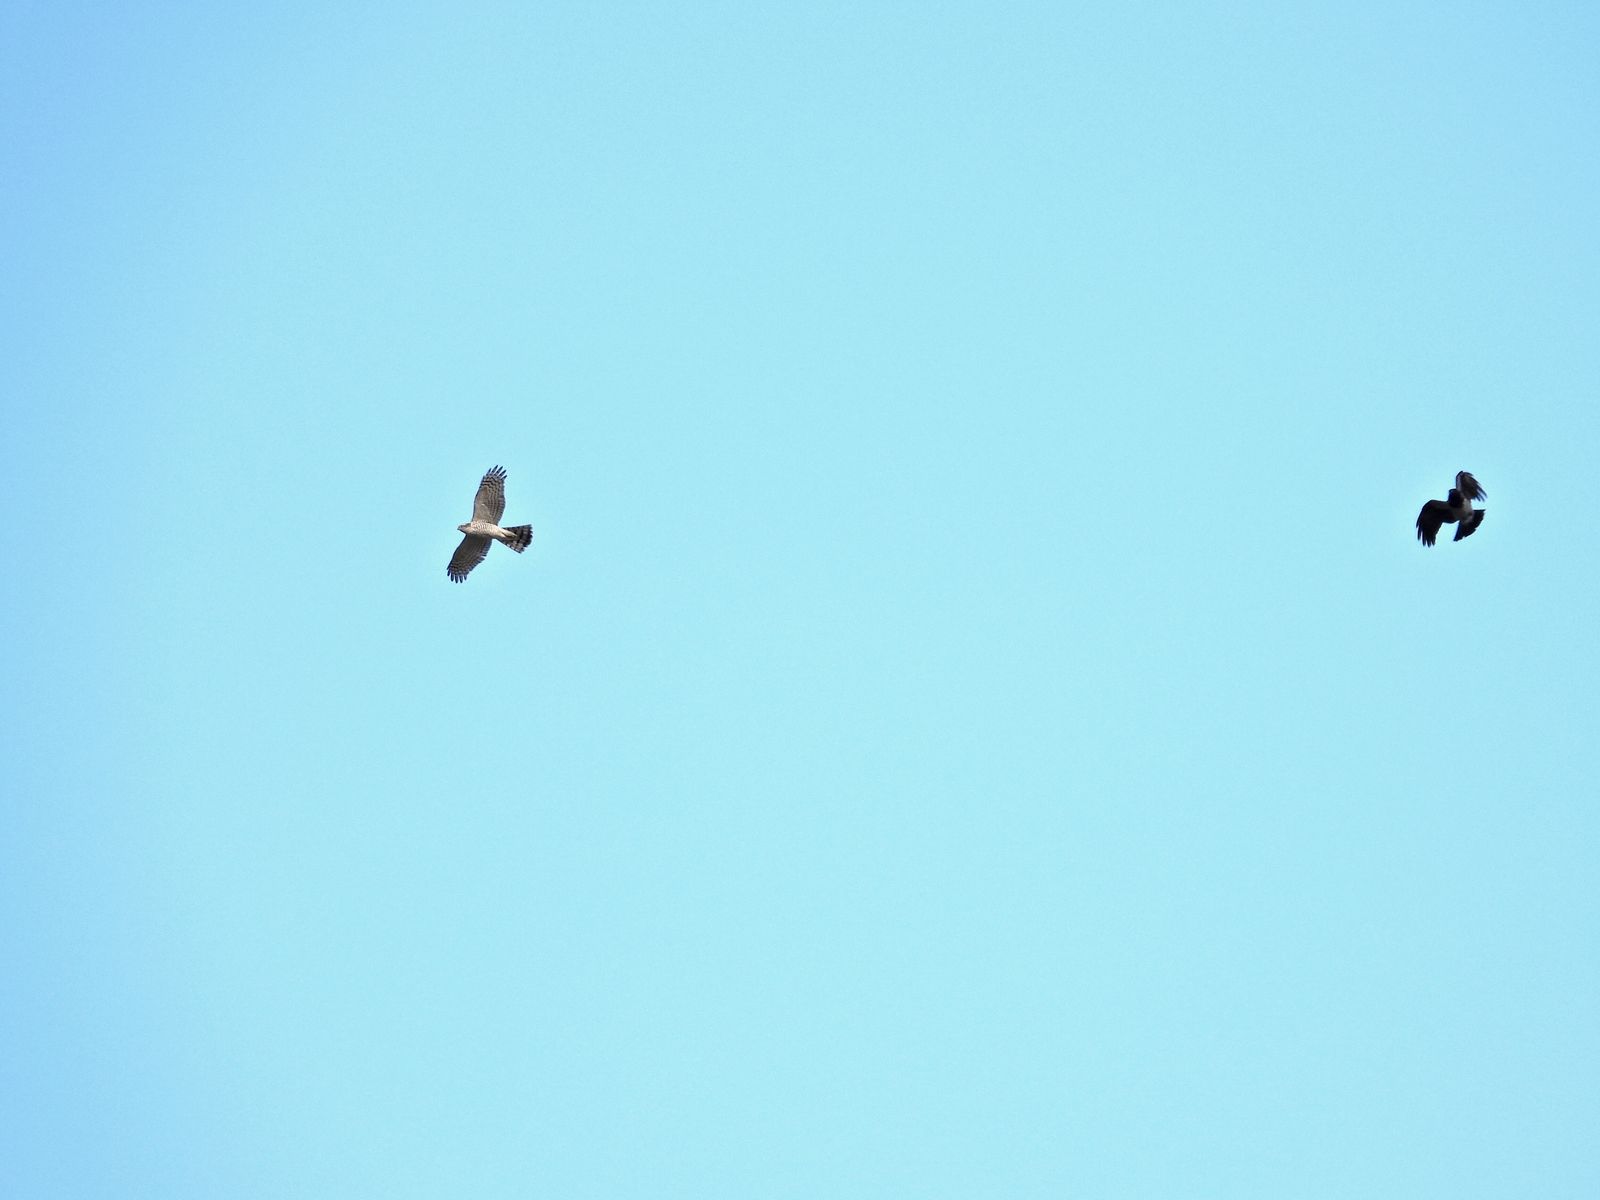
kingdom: Animalia
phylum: Chordata
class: Aves
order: Accipitriformes
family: Accipitridae
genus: Accipiter
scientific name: Accipiter nisus
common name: Eurasian sparrowhawk
